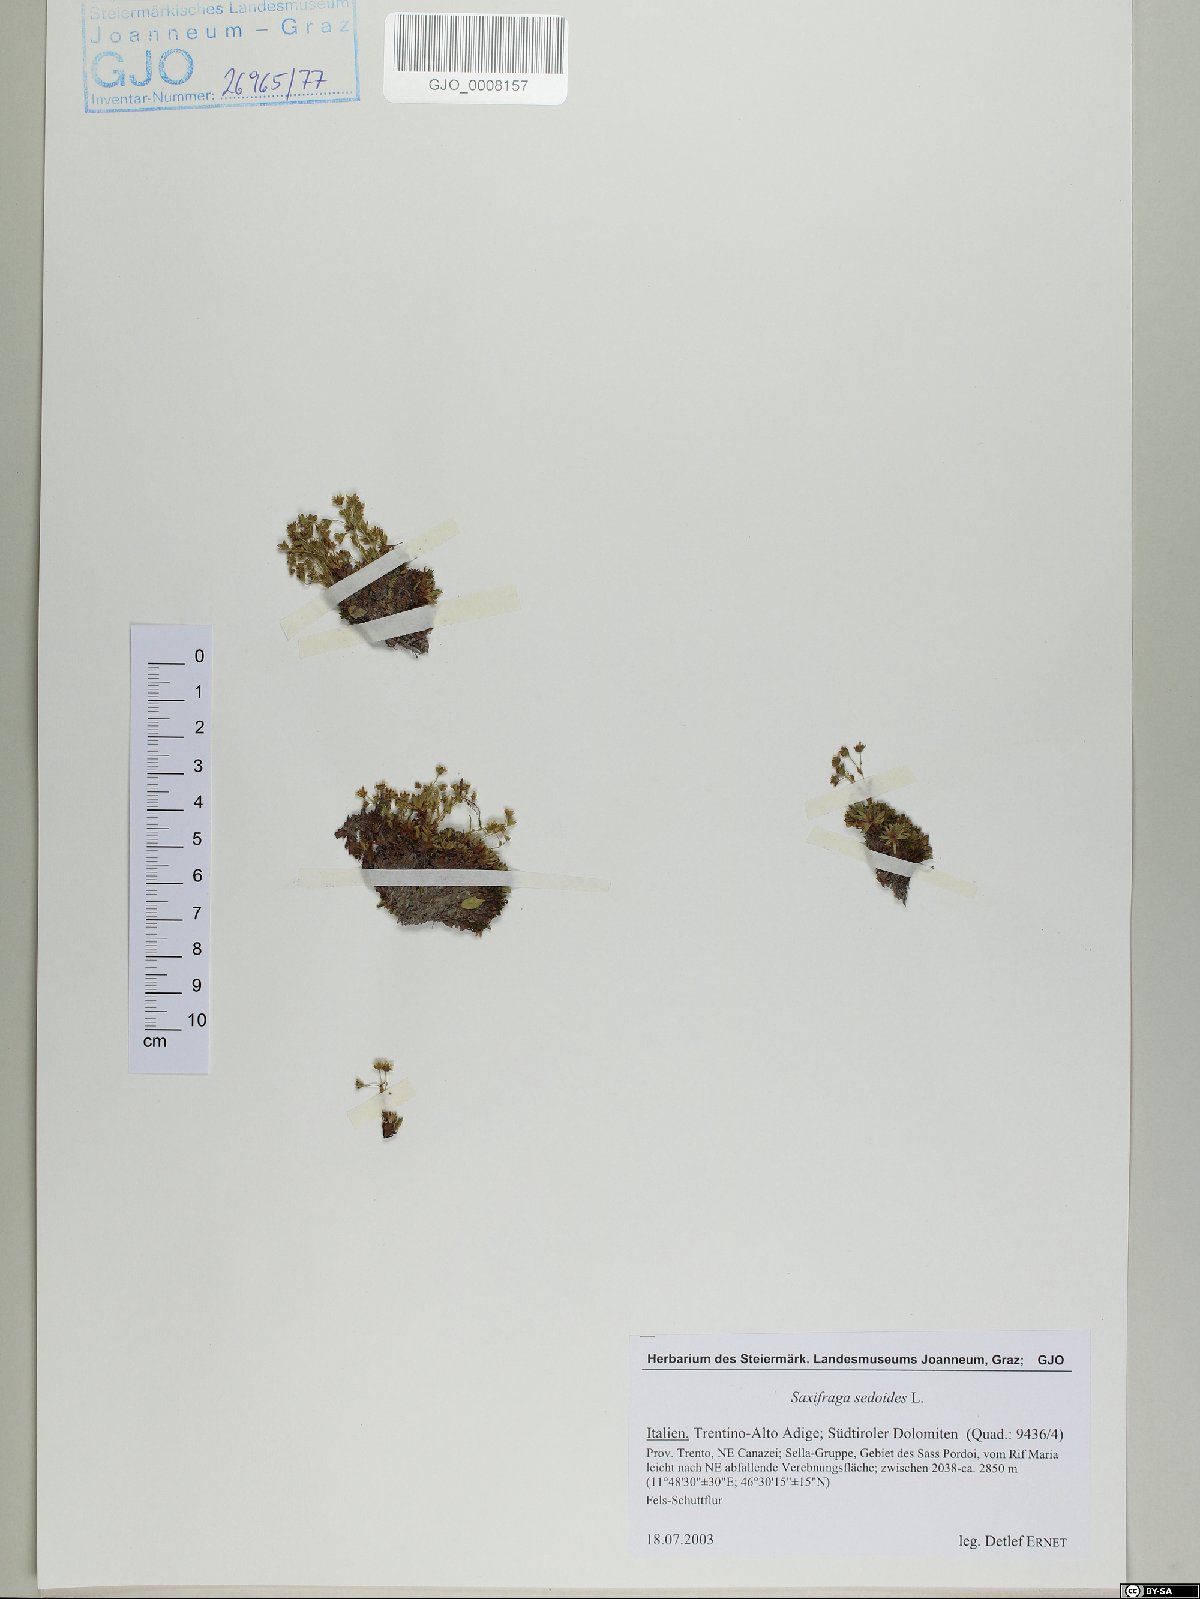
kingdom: Plantae
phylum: Tracheophyta
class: Magnoliopsida
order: Saxifragales
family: Saxifragaceae
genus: Saxifraga
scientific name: Saxifraga sedoides
